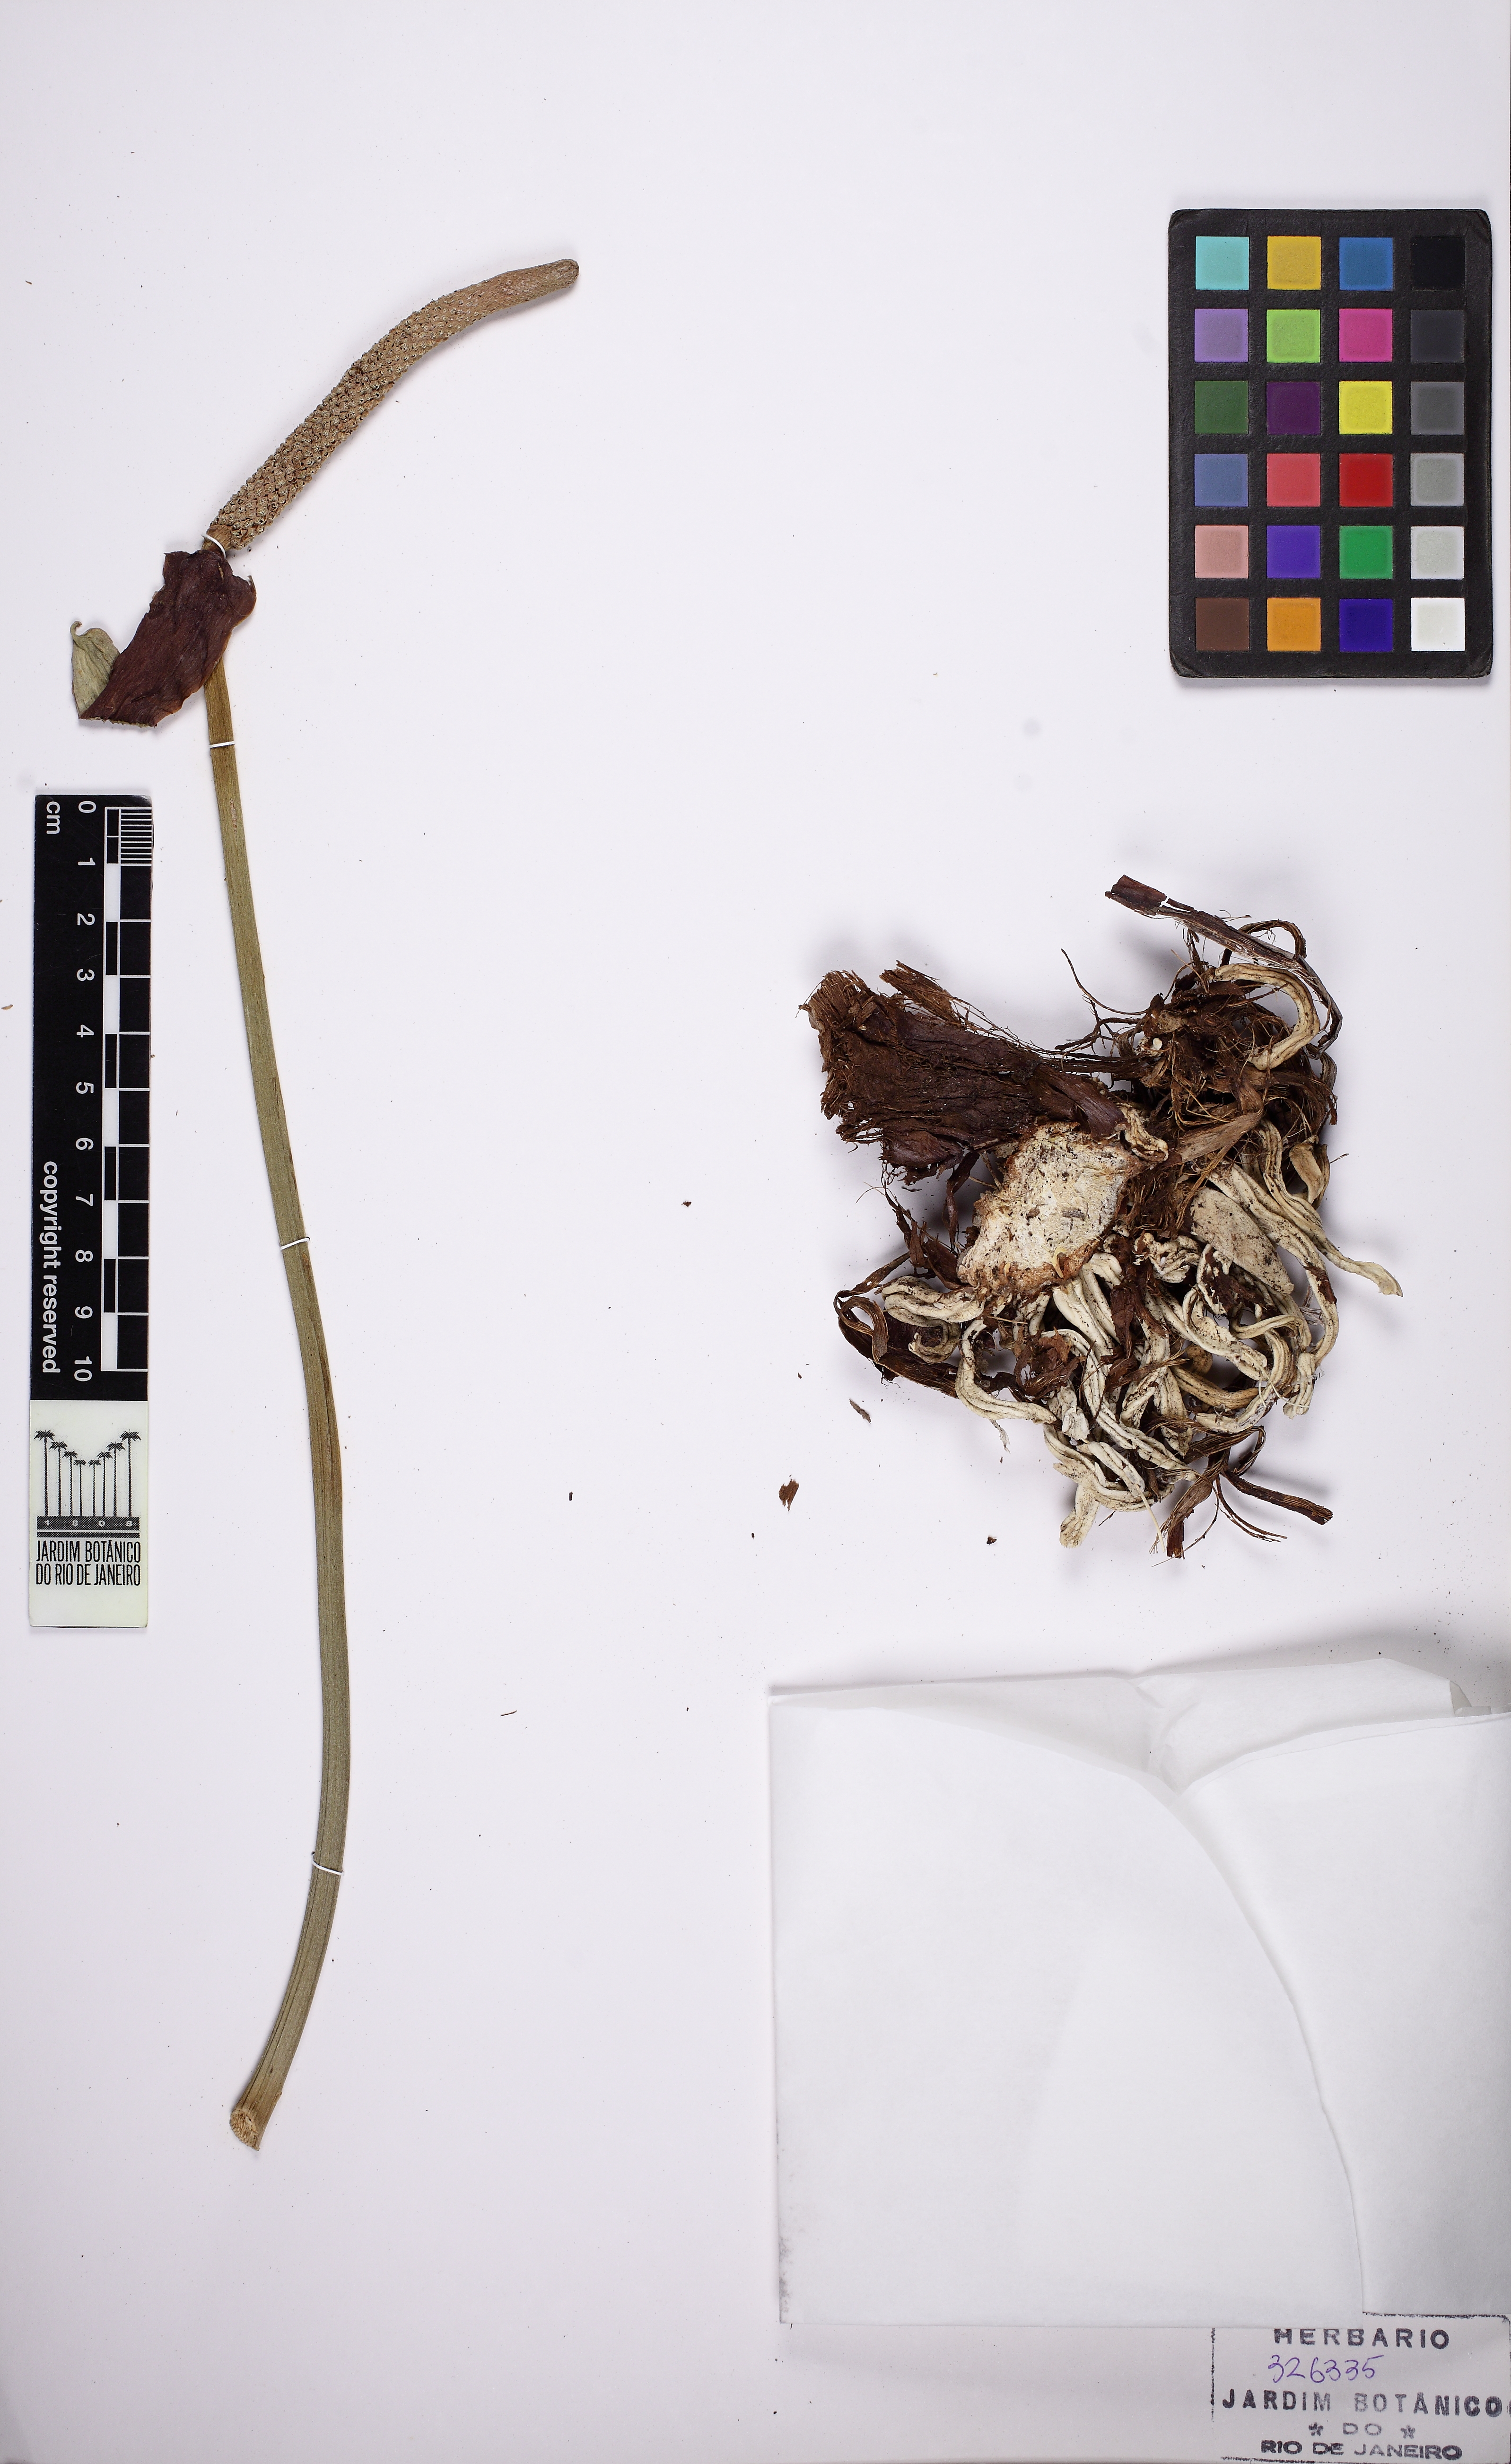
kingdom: Plantae
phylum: Tracheophyta
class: Liliopsida
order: Alismatales
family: Araceae
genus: Anthurium
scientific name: Anthurium affine
